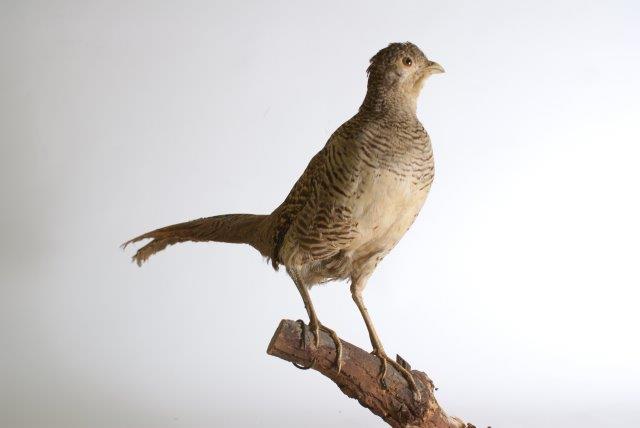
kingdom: Animalia
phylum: Chordata
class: Aves
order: Galliformes
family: Phasianidae
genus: Phasianus
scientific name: Phasianus colchicus
